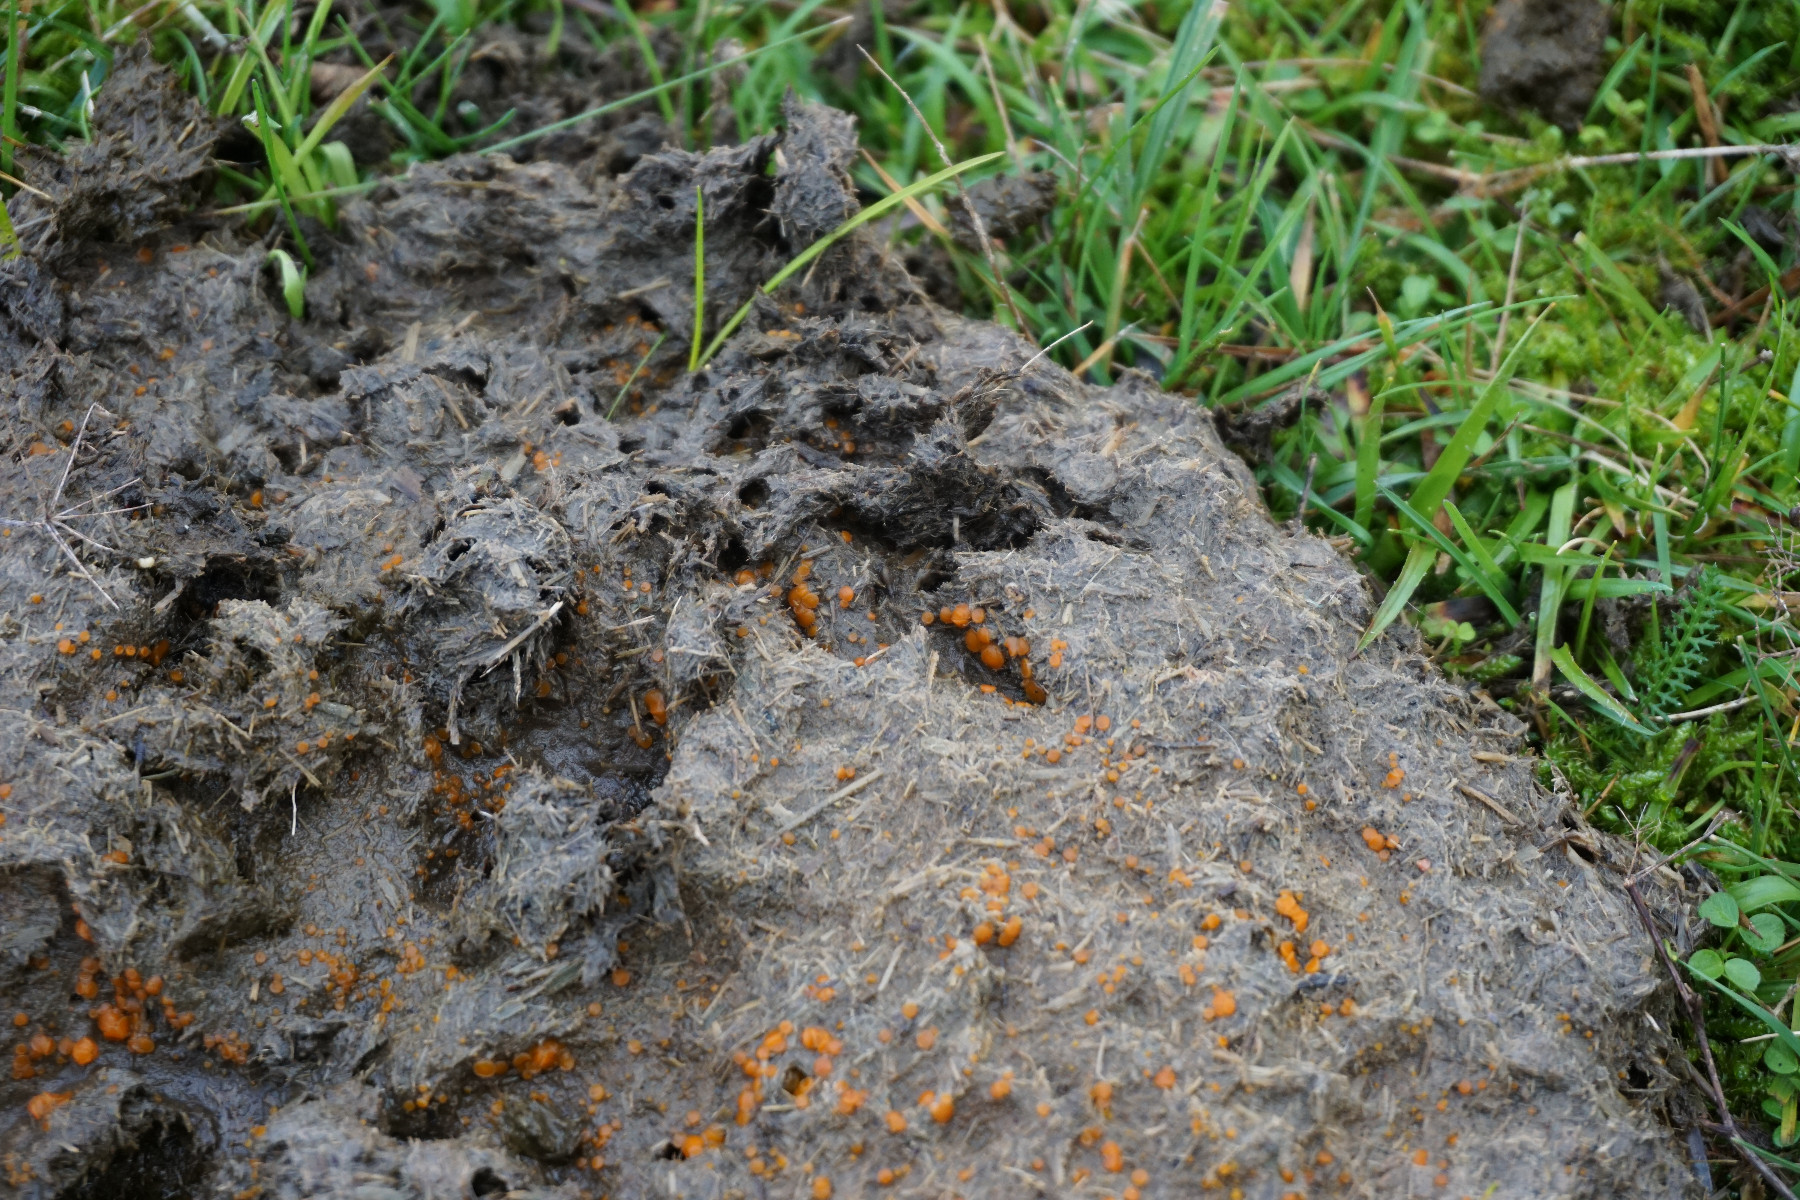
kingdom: Fungi
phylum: Ascomycota
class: Pezizomycetes
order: Pezizales
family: Pyronemataceae
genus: Cheilymenia
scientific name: Cheilymenia
